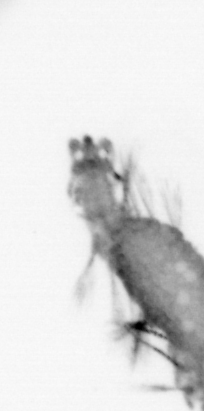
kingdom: Animalia
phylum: Annelida
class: Polychaeta
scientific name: Polychaeta
